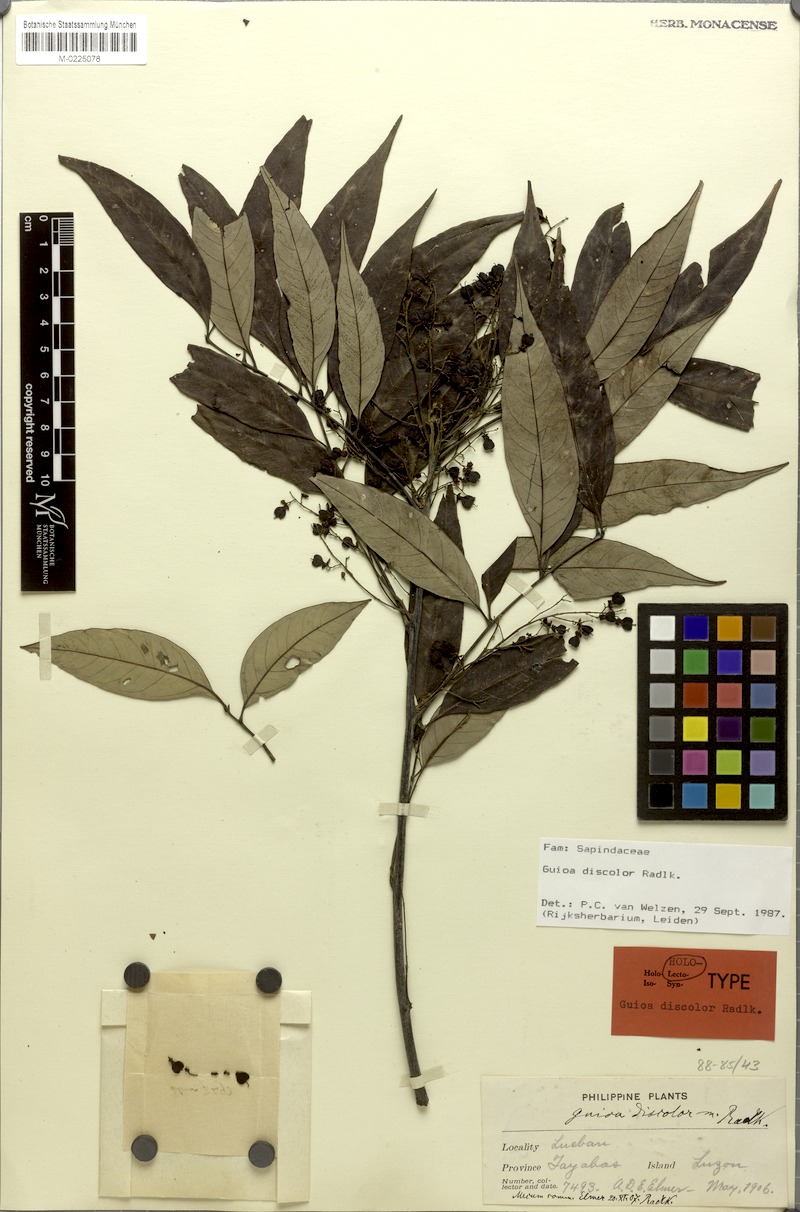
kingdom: Plantae
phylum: Tracheophyta
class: Magnoliopsida
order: Sapindales
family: Sapindaceae
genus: Guioa
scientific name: Guioa discolor
